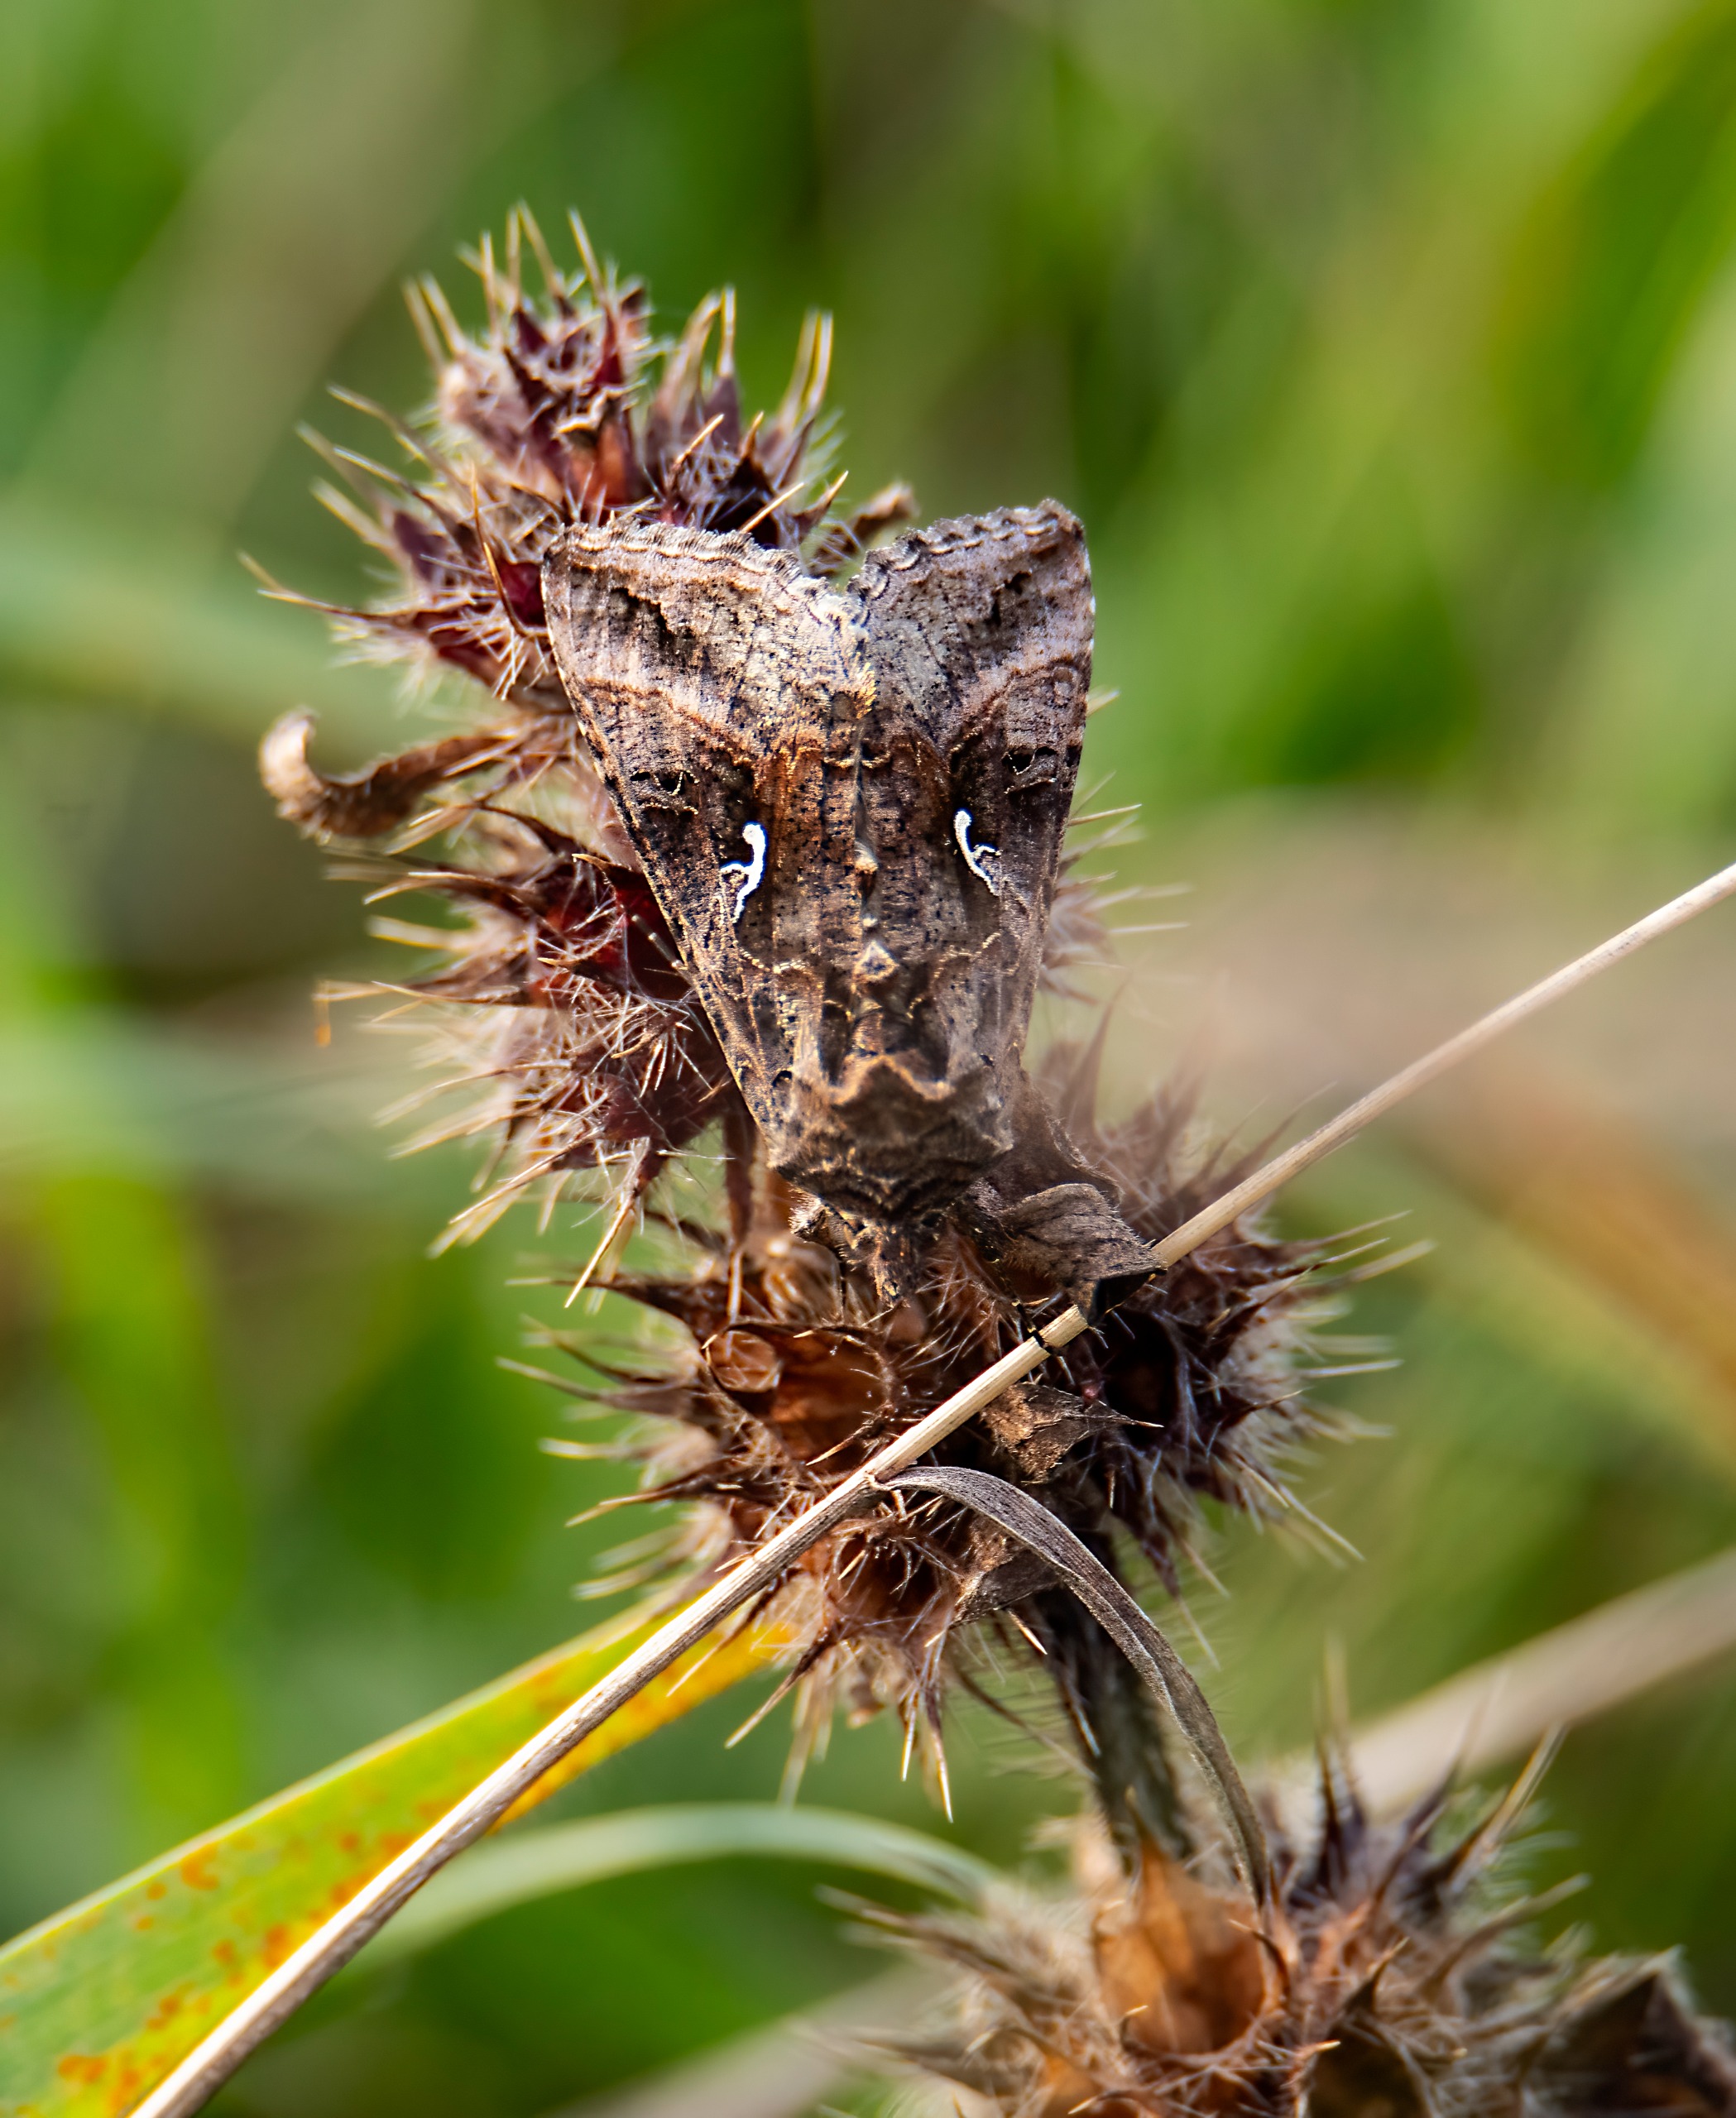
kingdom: Animalia
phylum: Arthropoda
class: Insecta
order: Lepidoptera
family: Noctuidae
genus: Autographa
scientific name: Autographa gamma
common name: Gammaugle
